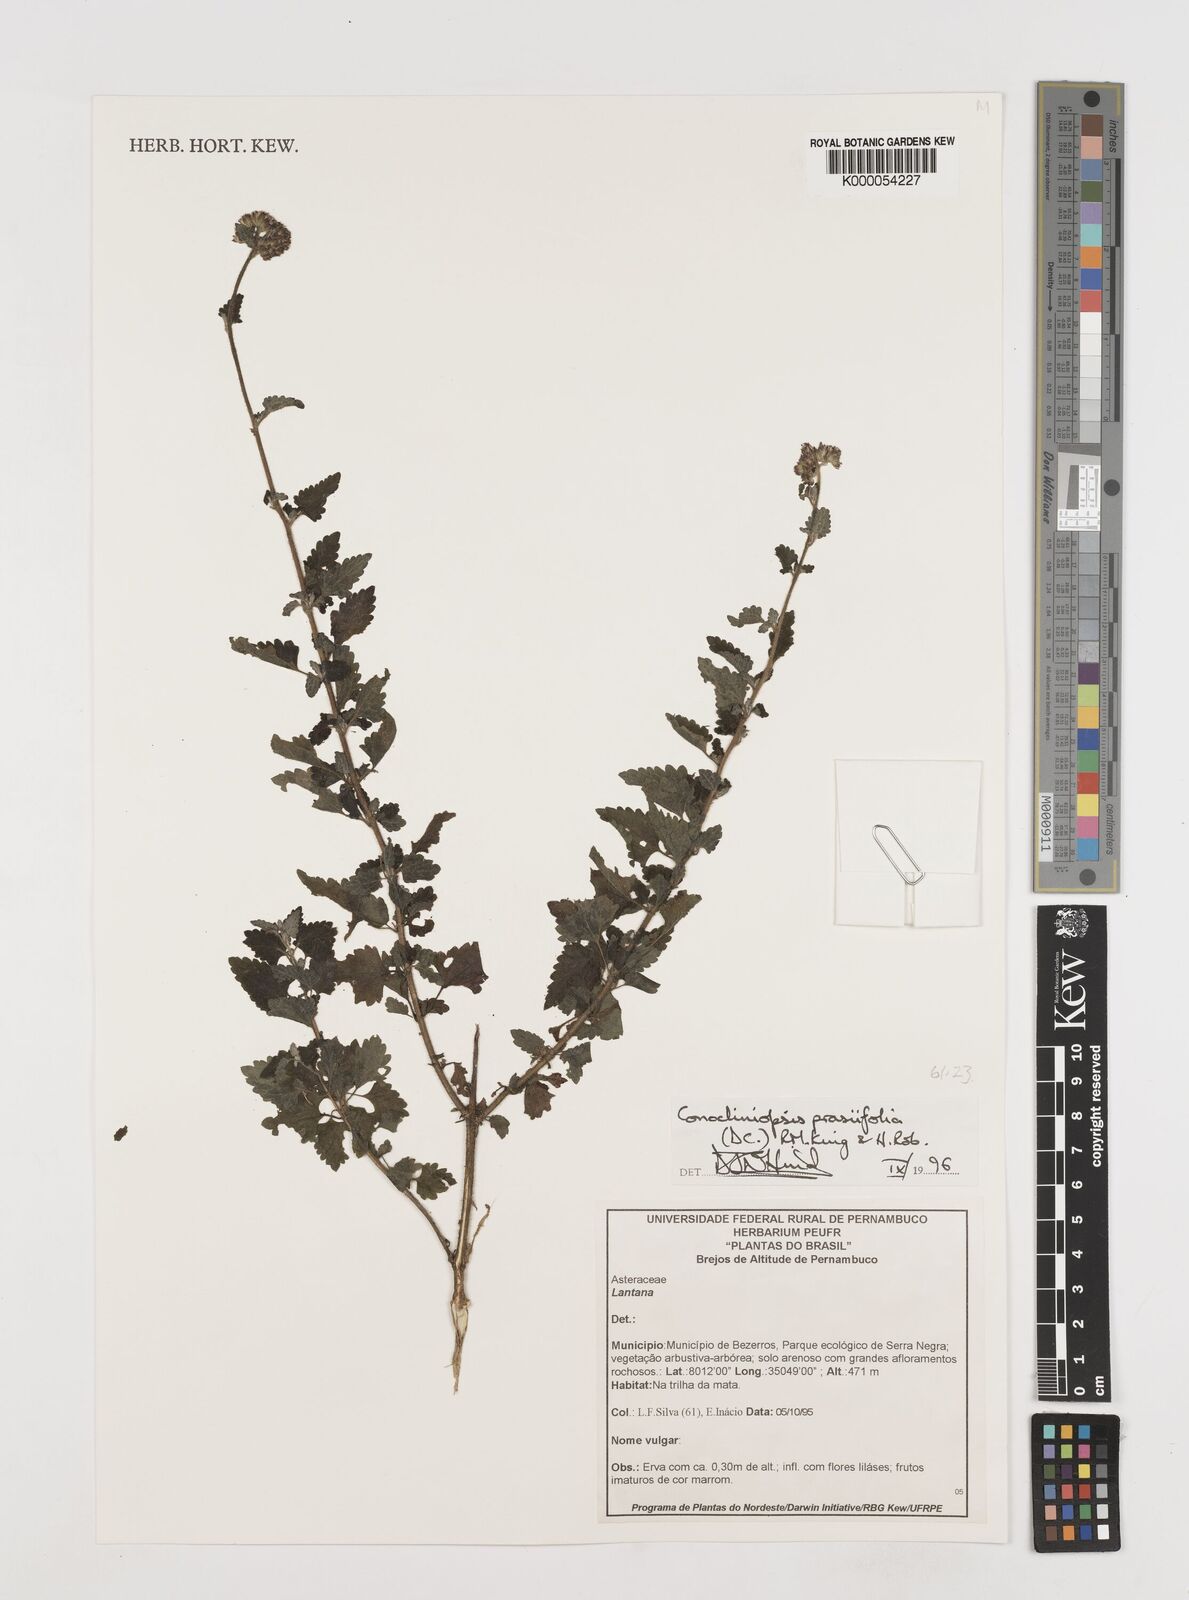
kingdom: Plantae
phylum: Tracheophyta
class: Magnoliopsida
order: Asterales
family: Asteraceae
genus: Conocliniopsis
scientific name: Conocliniopsis grossedentata
